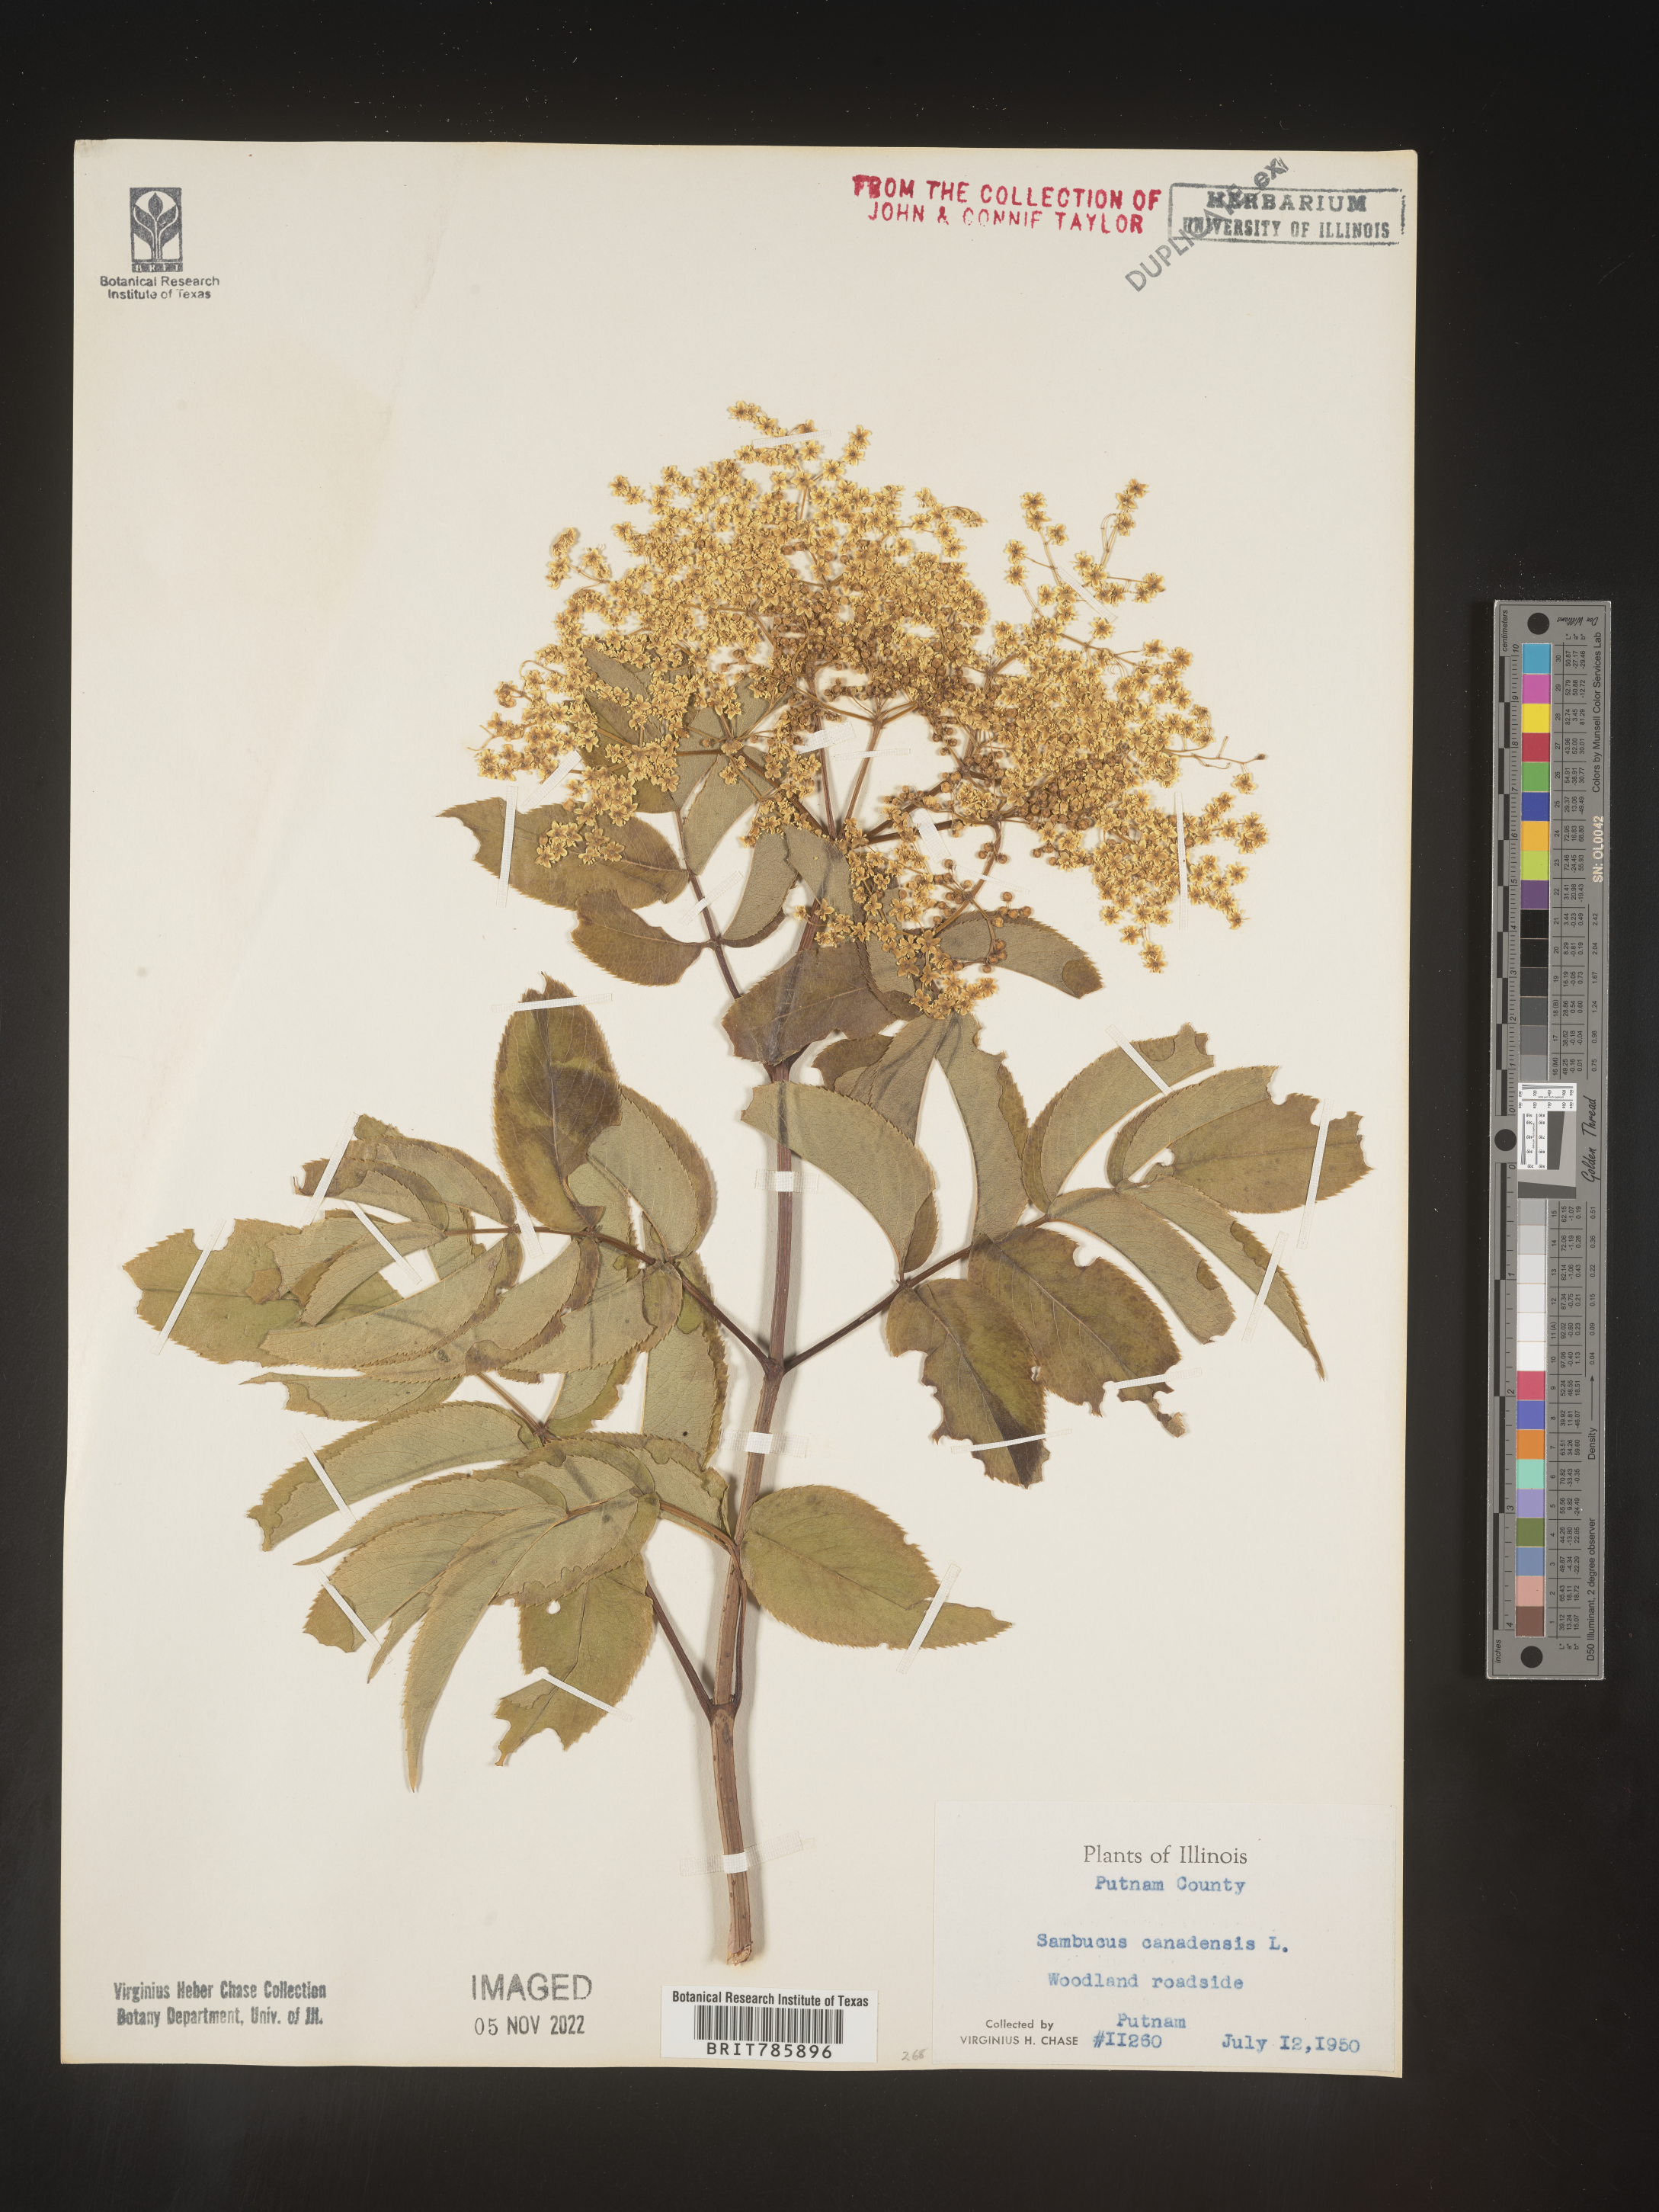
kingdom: Plantae
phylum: Tracheophyta
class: Magnoliopsida
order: Dipsacales
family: Viburnaceae
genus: Sambucus
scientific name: Sambucus nigra
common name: Elder
